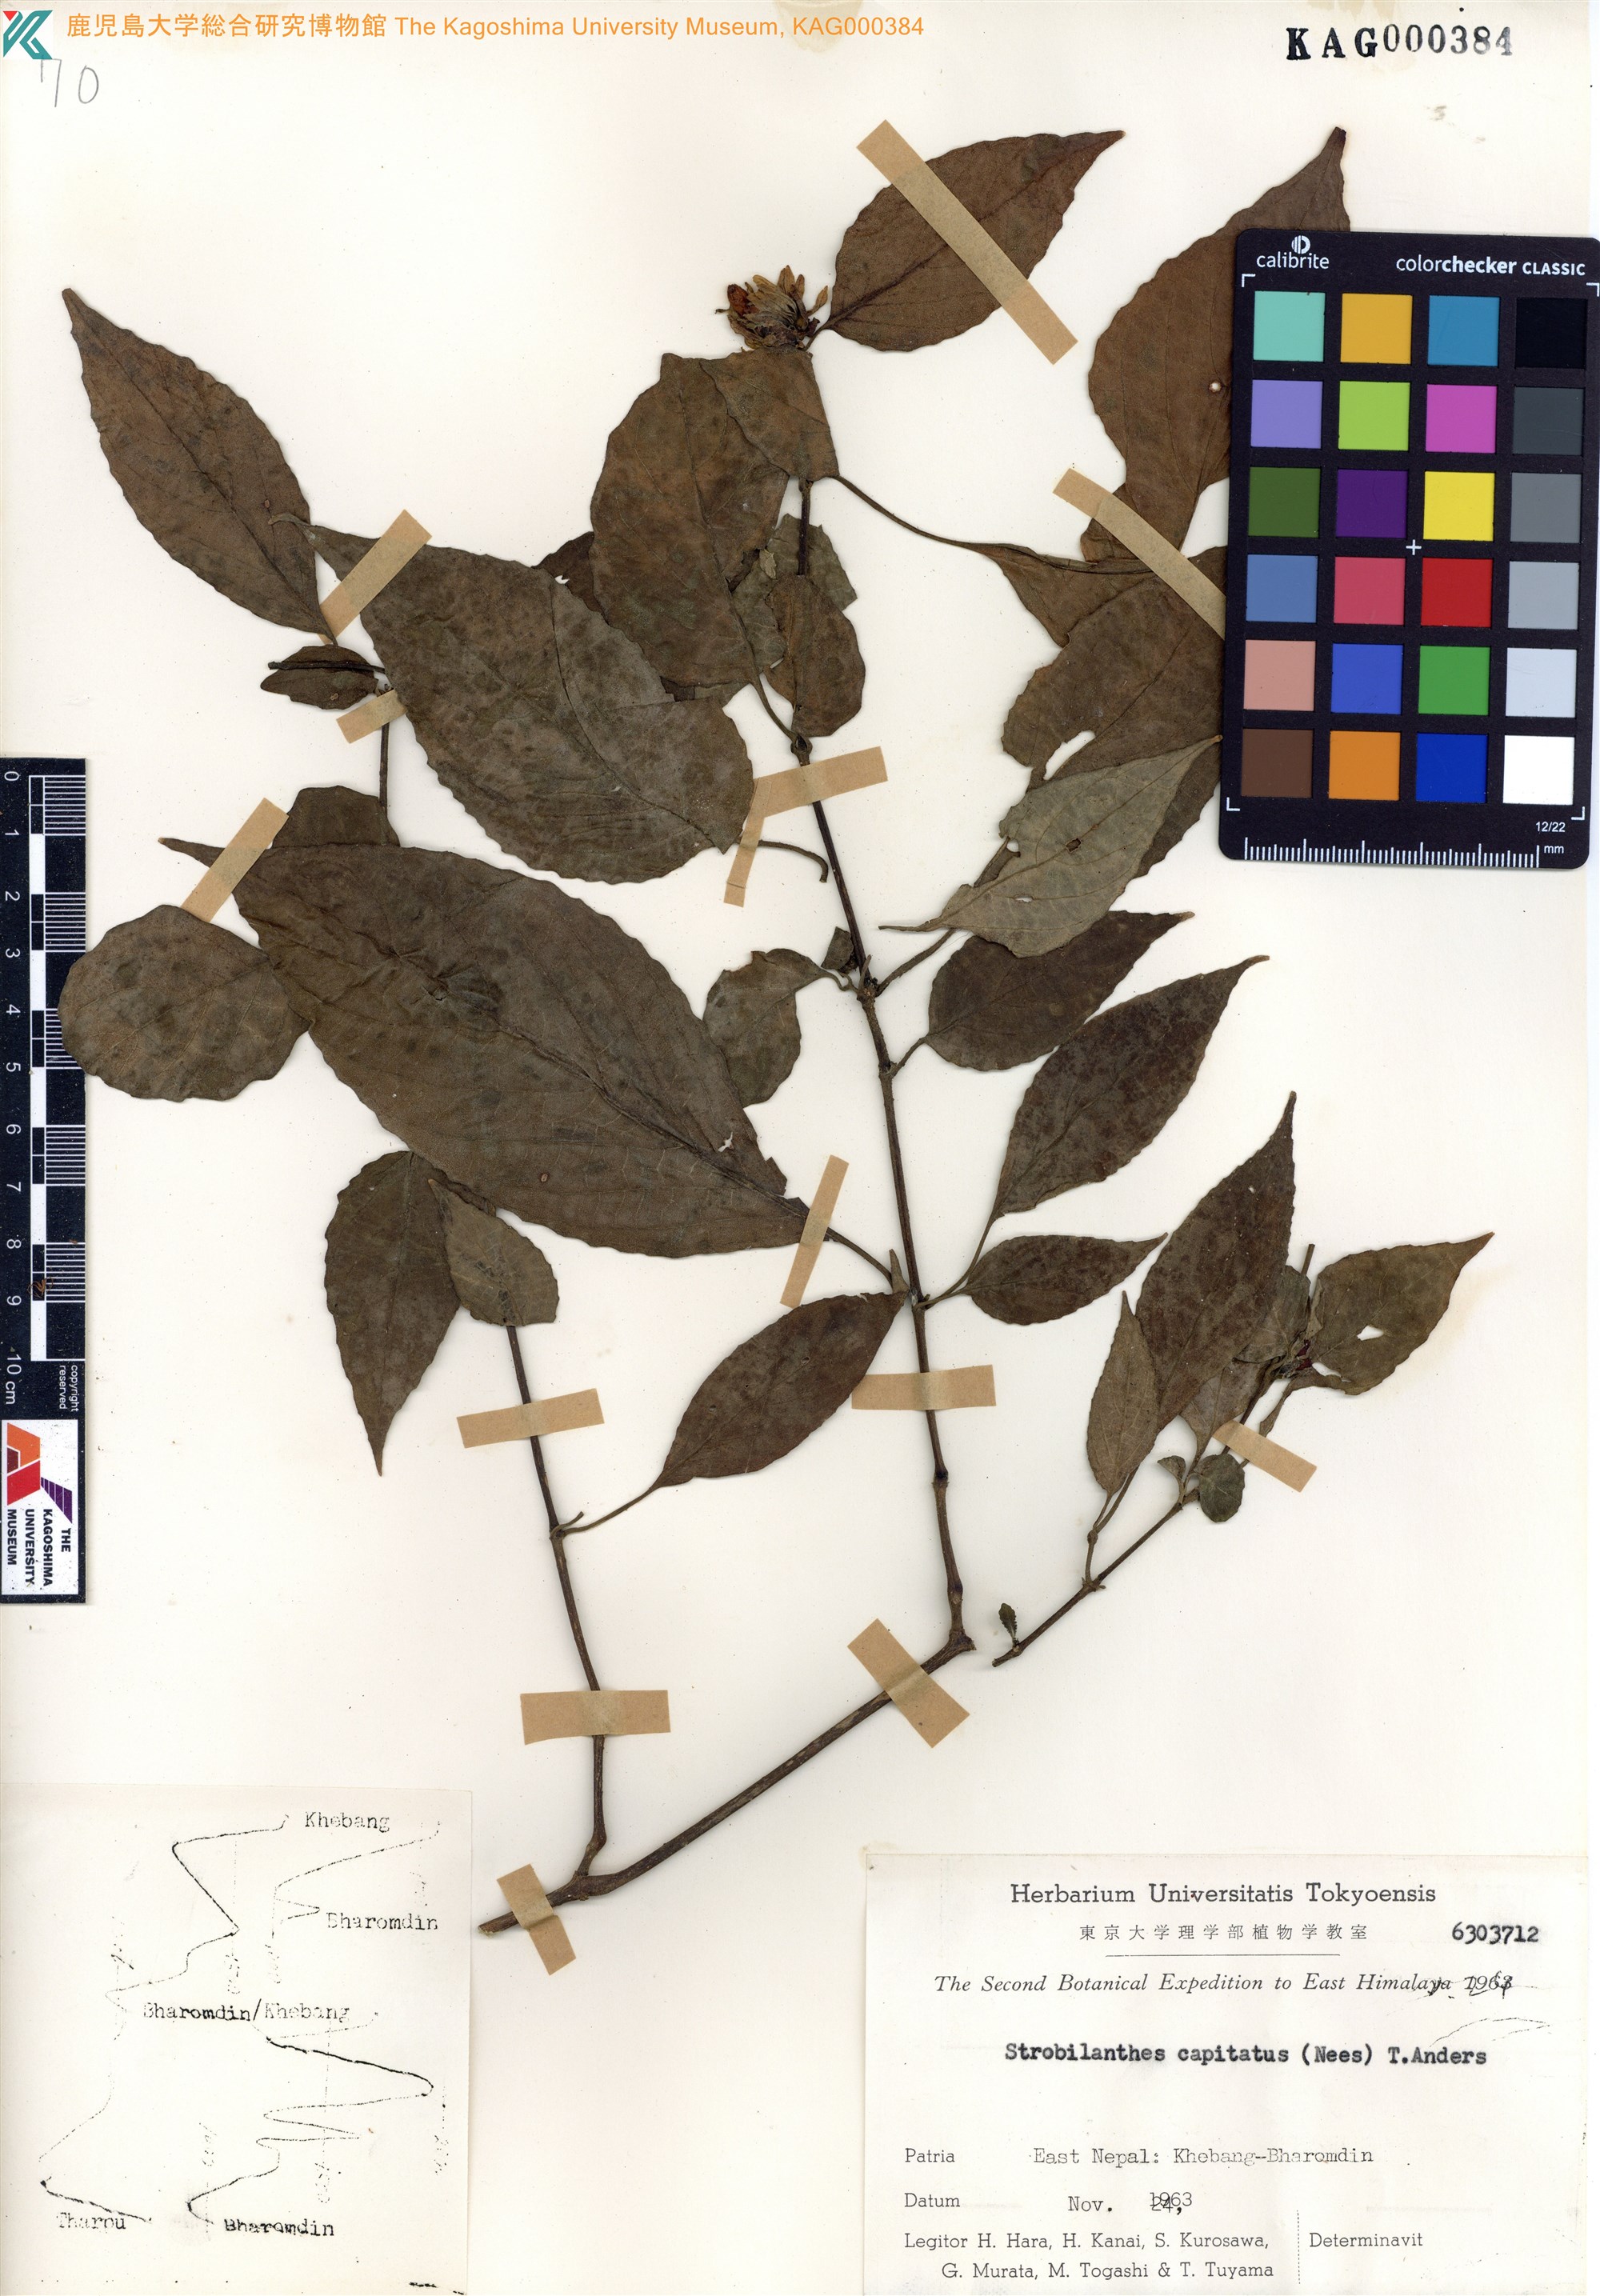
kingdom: Plantae
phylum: Tracheophyta
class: Magnoliopsida
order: Lamiales
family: Acanthaceae
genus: Strobilanthes
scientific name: Strobilanthes capitata
